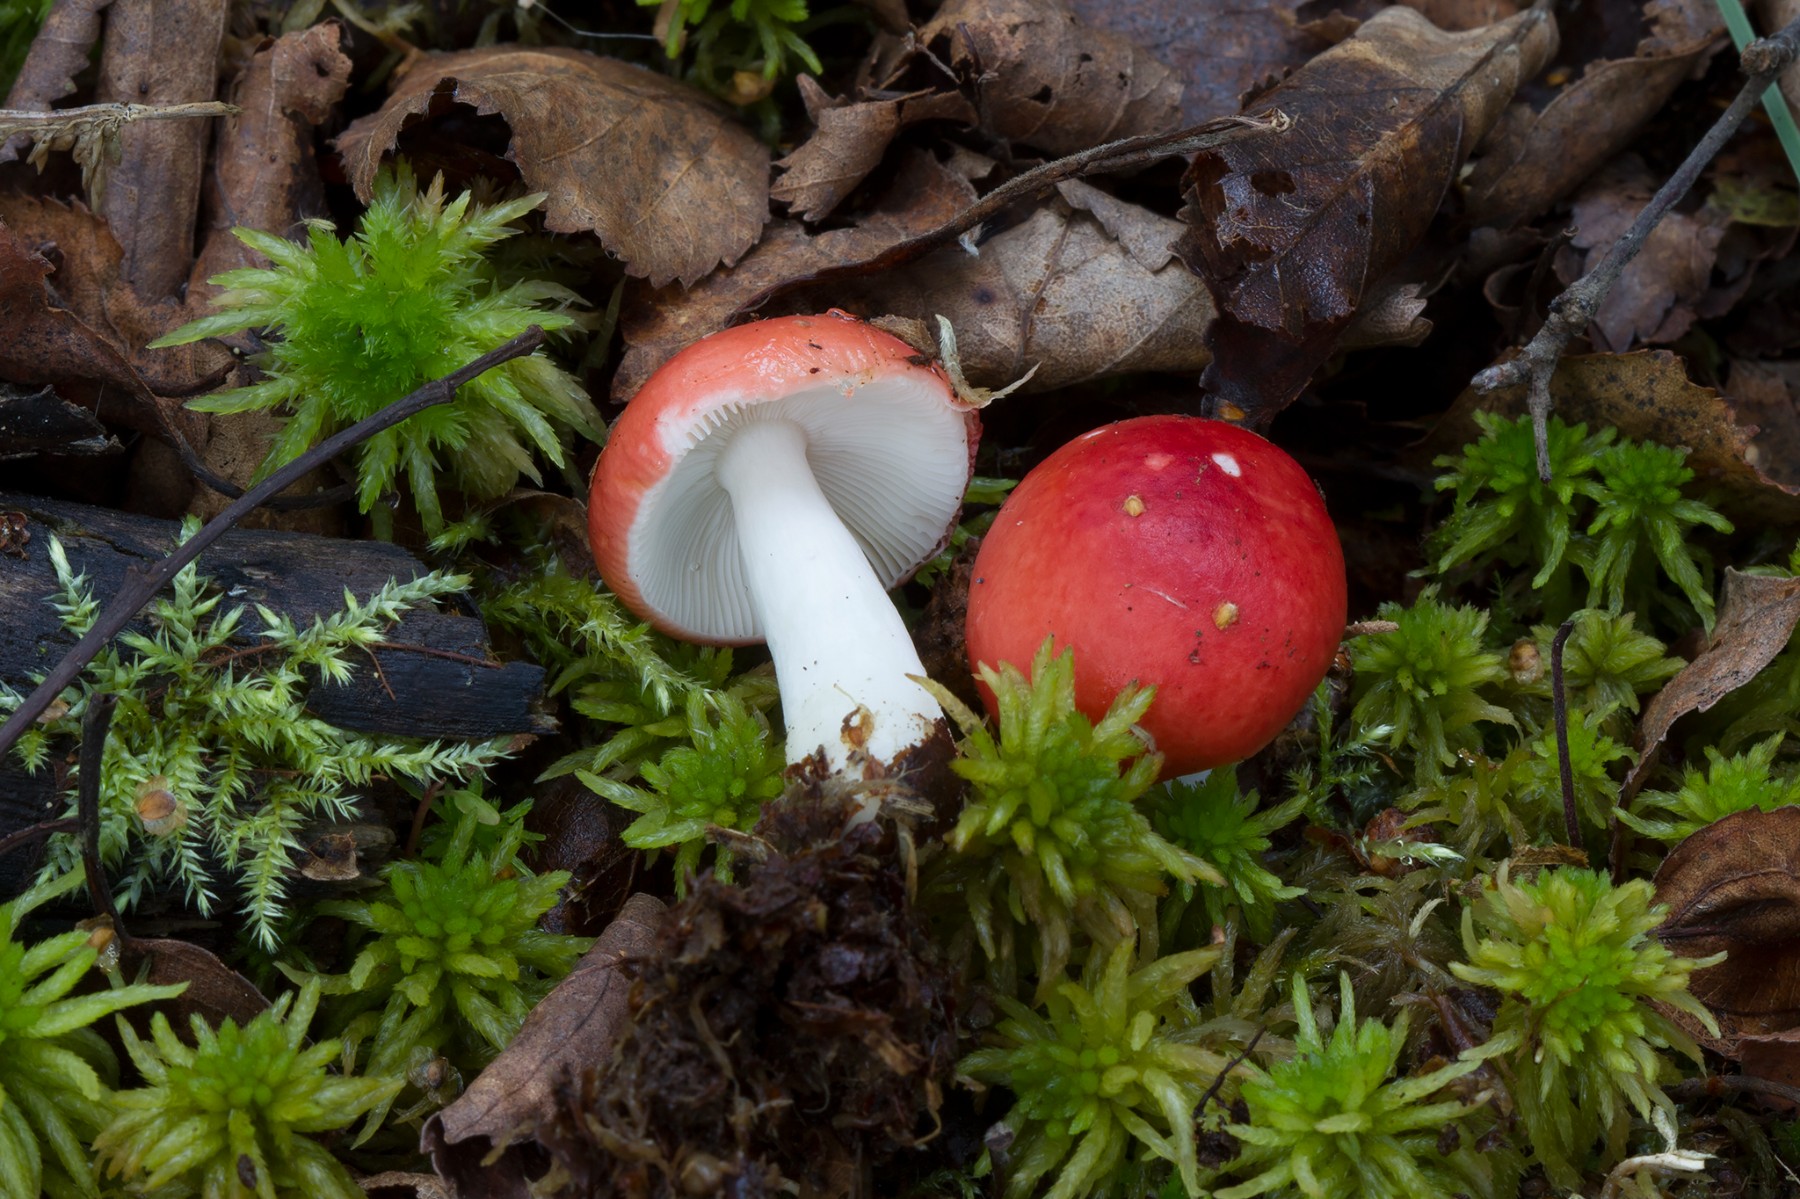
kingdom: Fungi
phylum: Basidiomycota
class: Agaricomycetes
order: Russulales
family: Russulaceae
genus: Russula
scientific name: Russula silvestris
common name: mellemstor gift-skørhat
